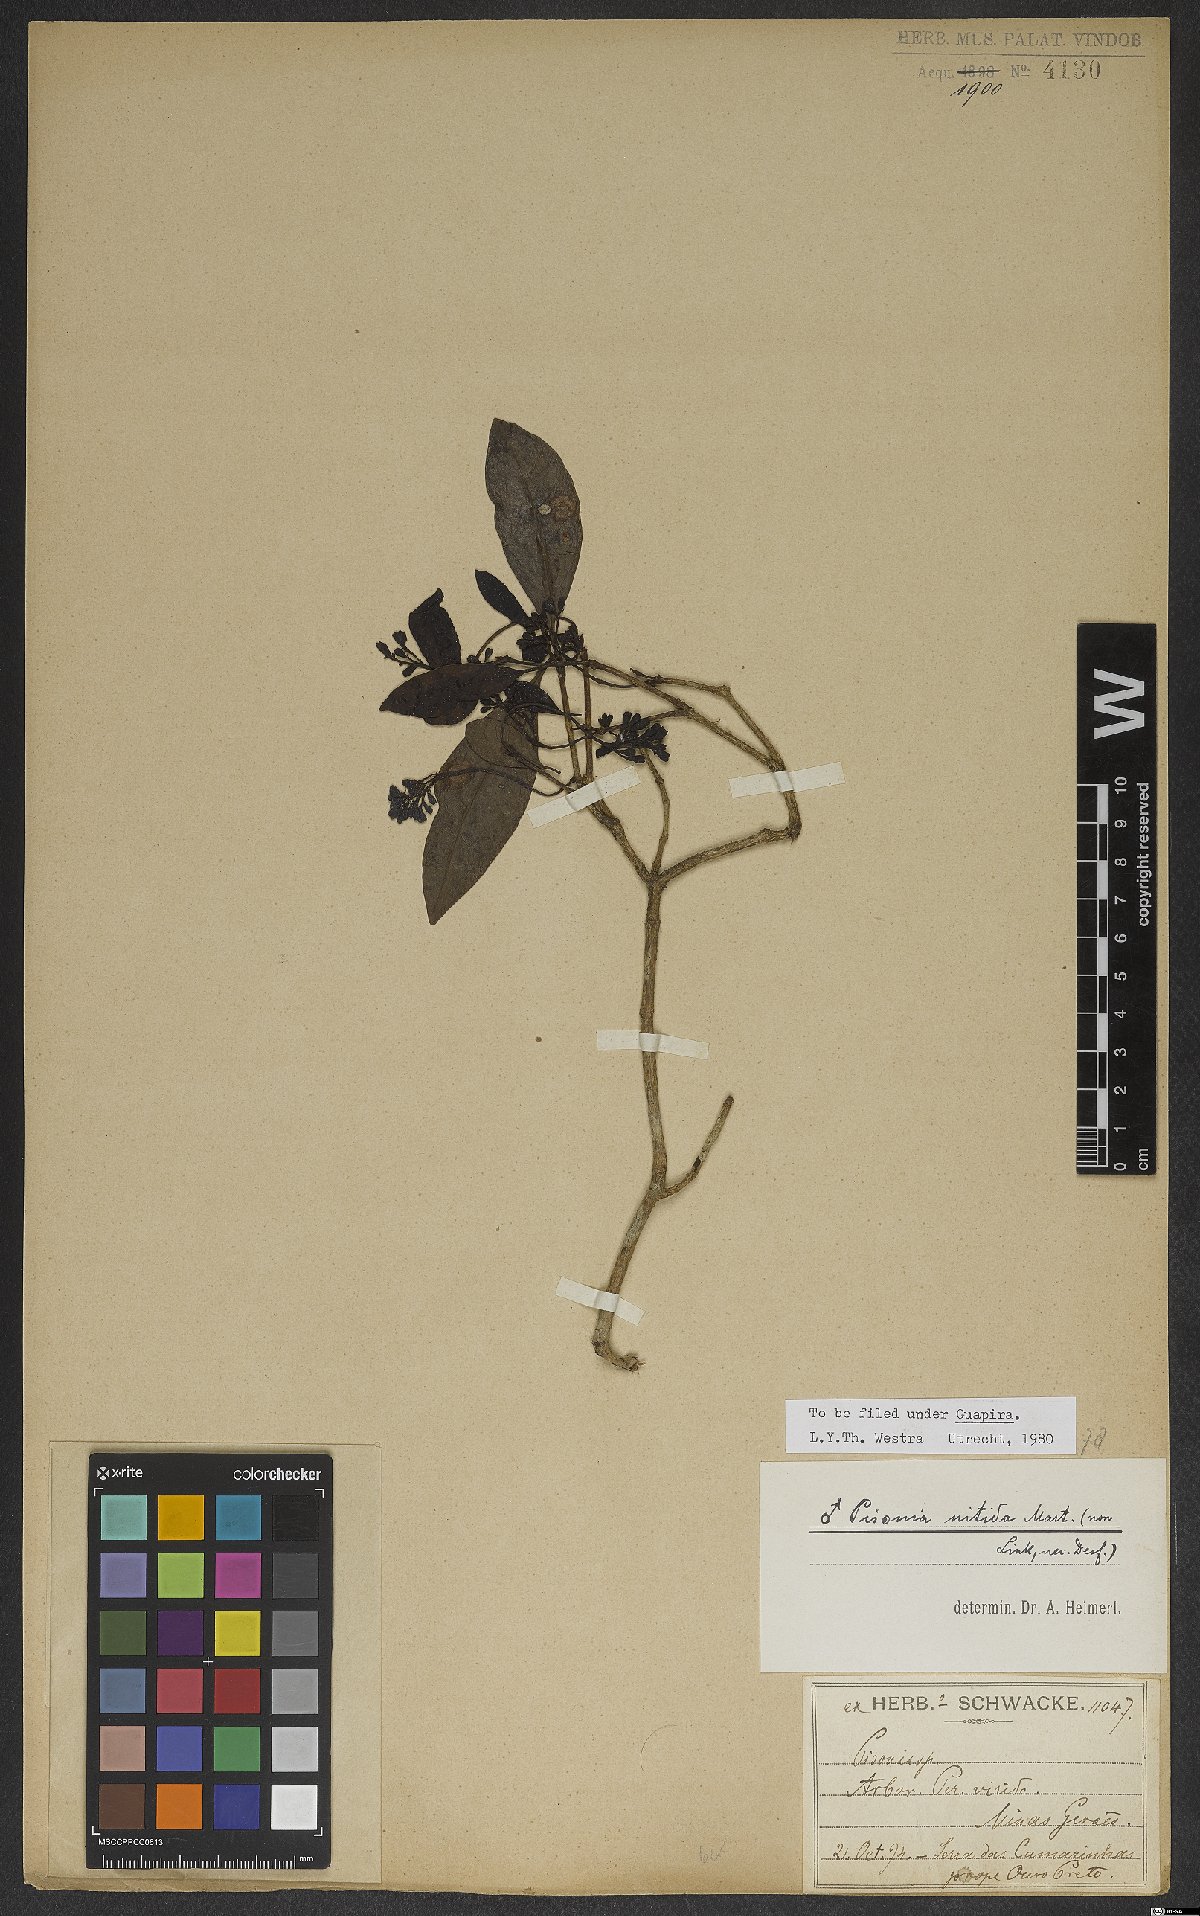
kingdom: Plantae
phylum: Tracheophyta
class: Magnoliopsida
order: Caryophyllales
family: Nyctaginaceae
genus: Guapira
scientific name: Guapira nitida
